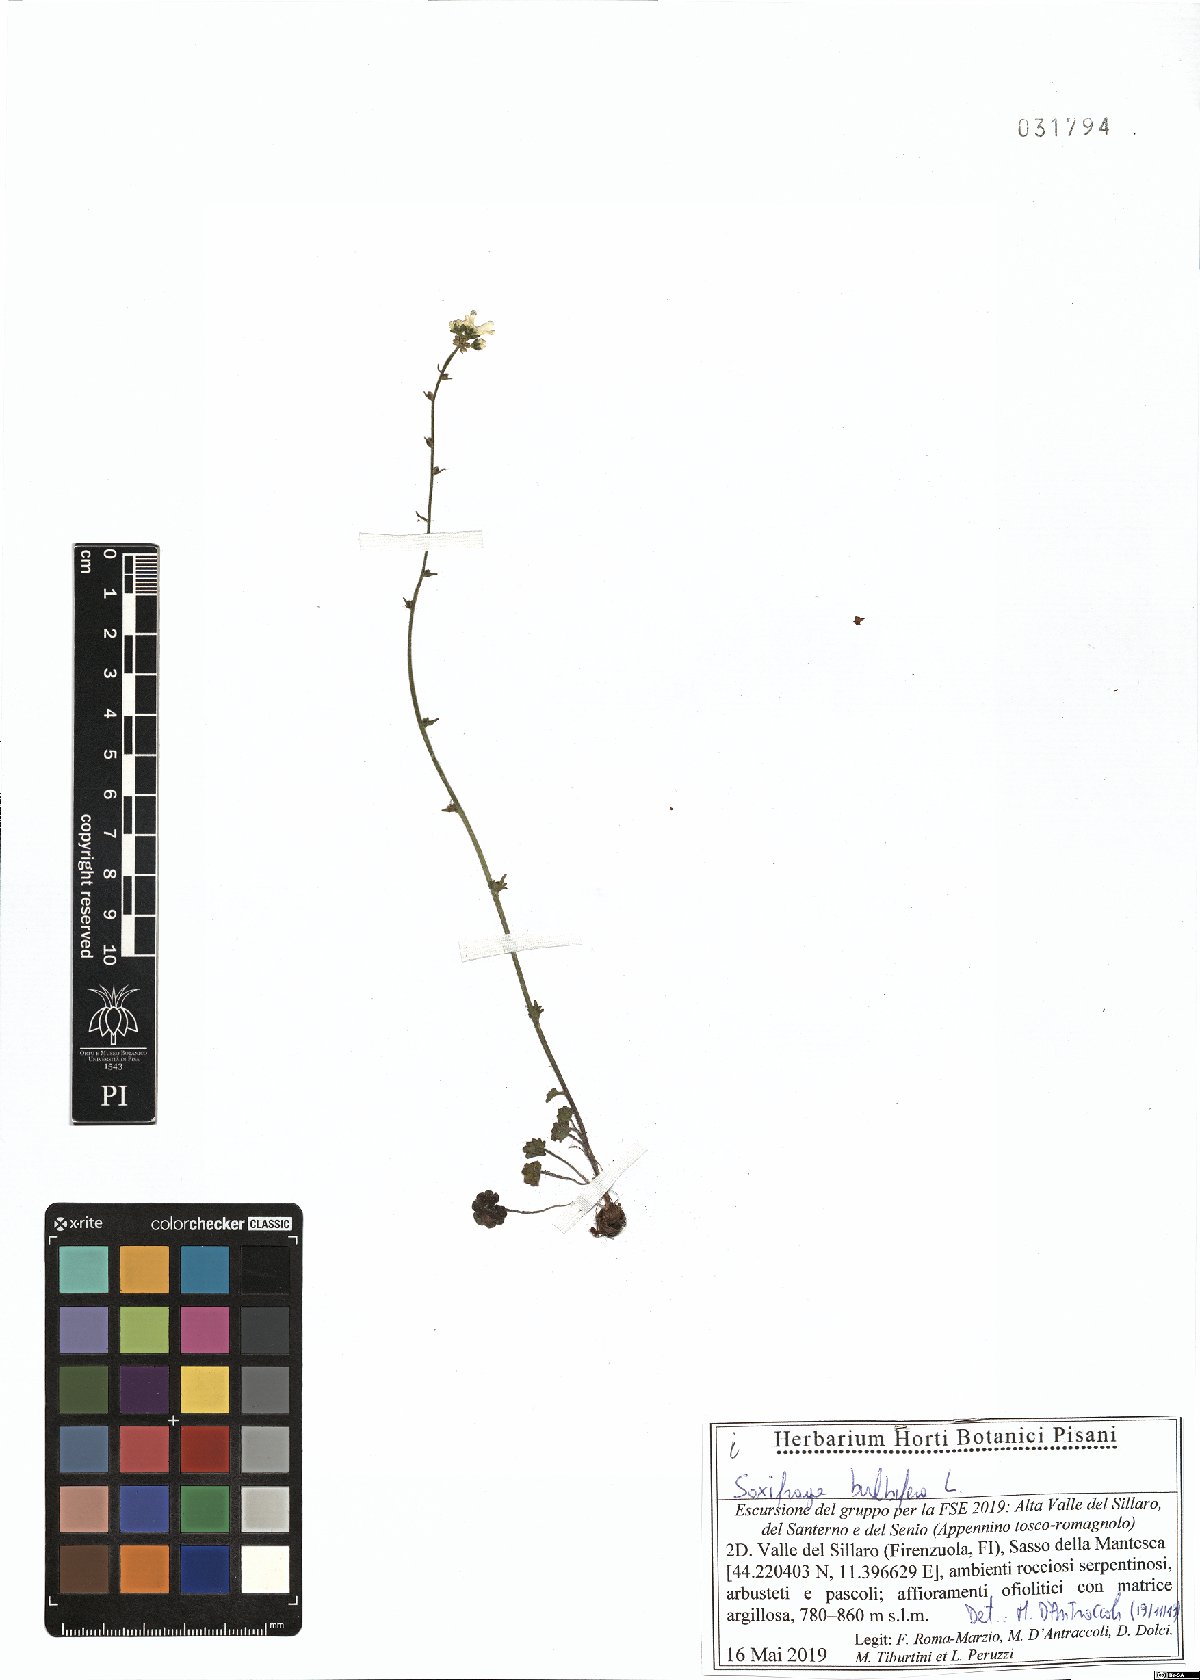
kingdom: Plantae
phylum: Tracheophyta
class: Magnoliopsida
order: Saxifragales
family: Saxifragaceae
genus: Saxifraga
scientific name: Saxifraga bulbifera
